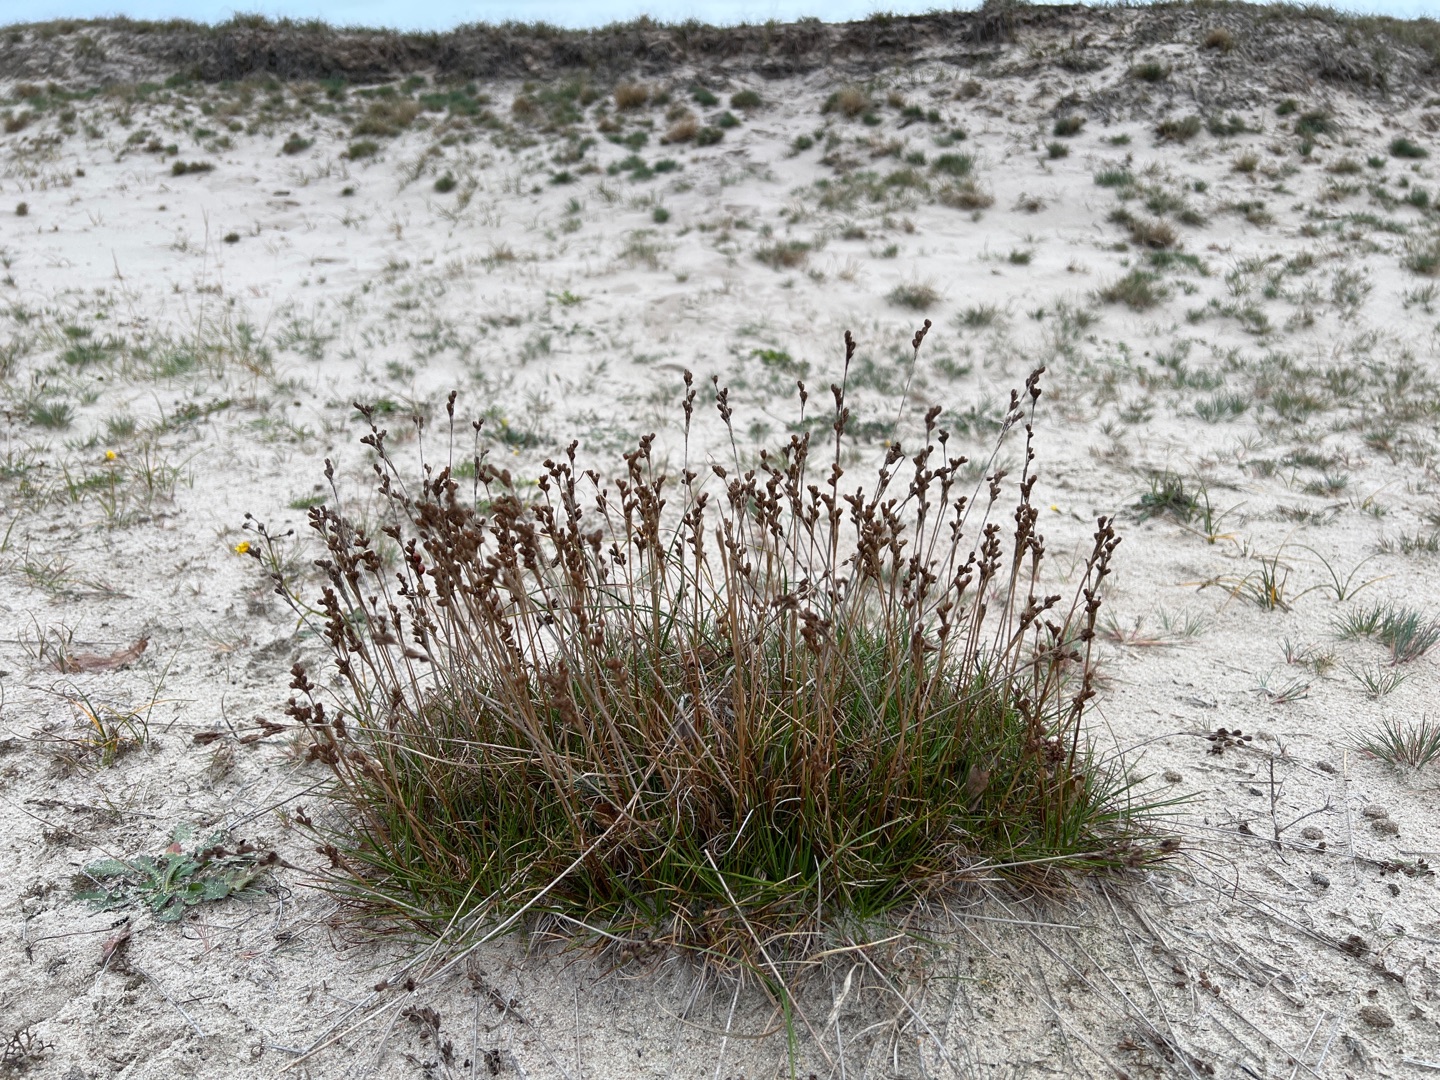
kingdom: Plantae
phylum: Tracheophyta
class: Liliopsida
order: Poales
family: Juncaceae
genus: Juncus
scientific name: Juncus squarrosus
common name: Børste-siv
